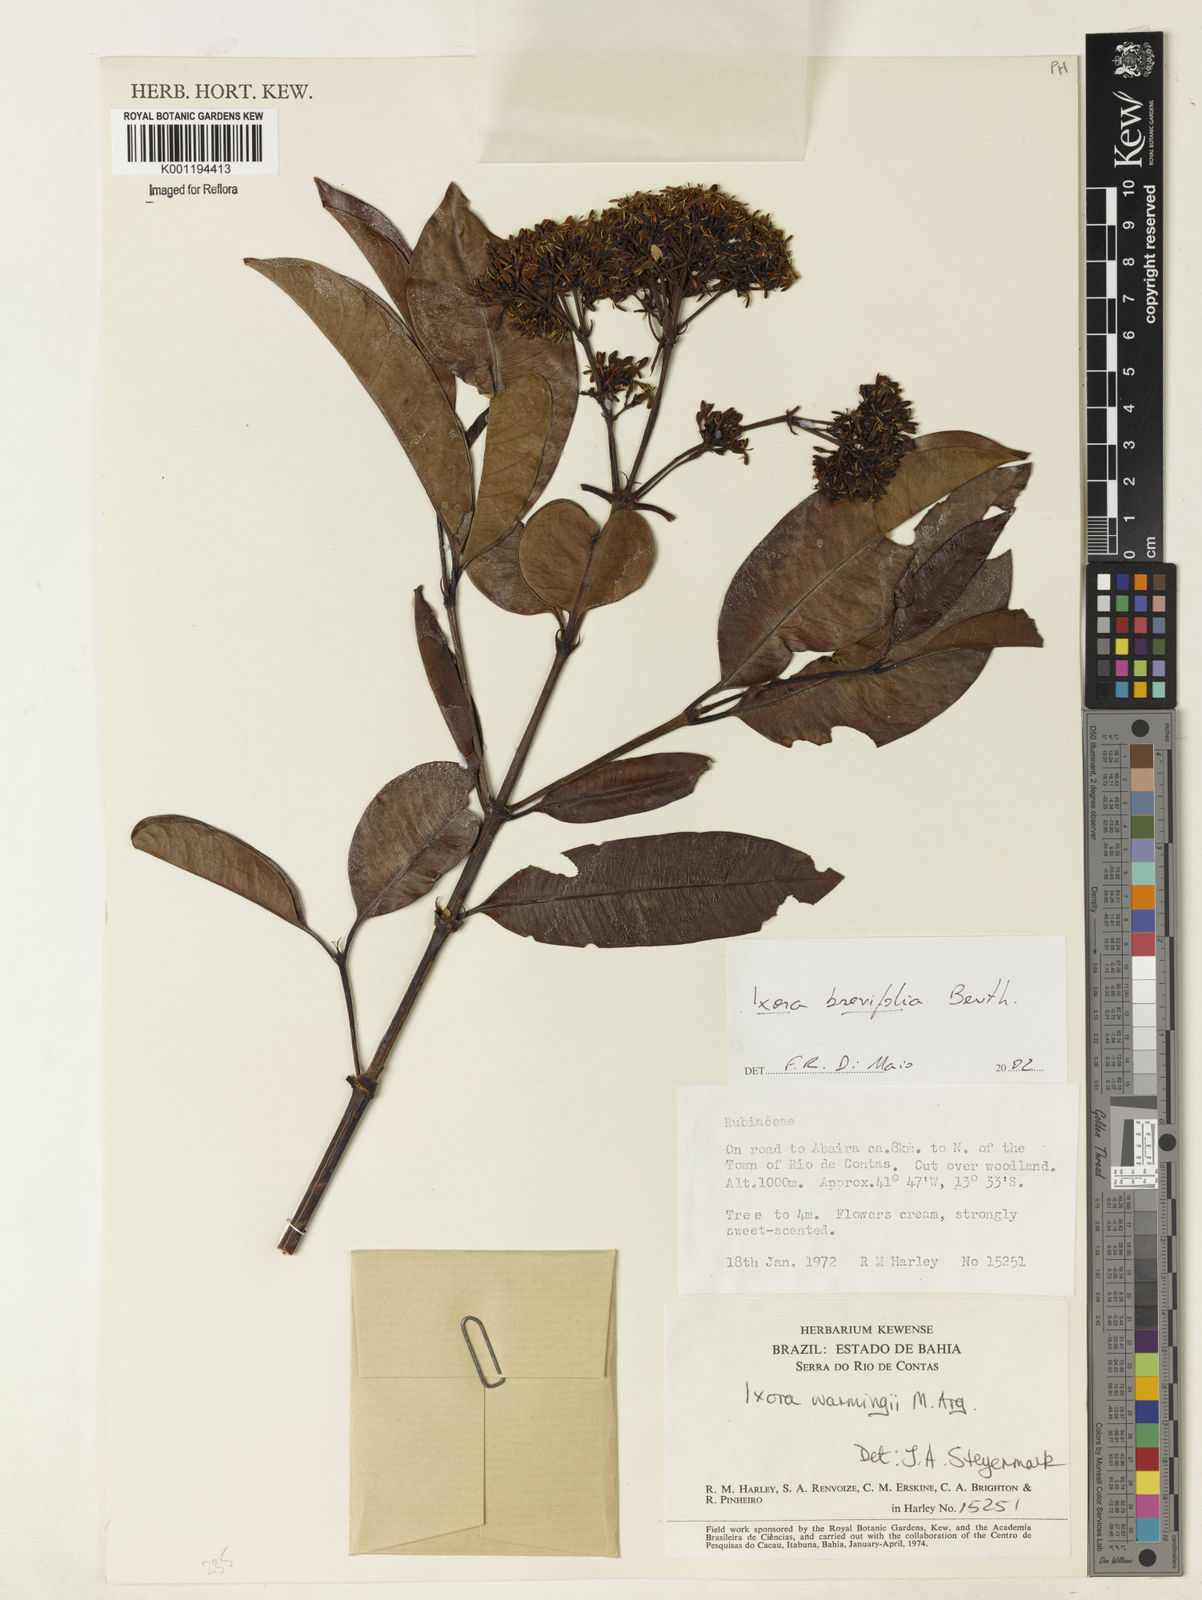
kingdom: Plantae
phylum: Tracheophyta
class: Magnoliopsida
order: Gentianales
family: Rubiaceae
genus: Ixora
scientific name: Ixora brevifolia
